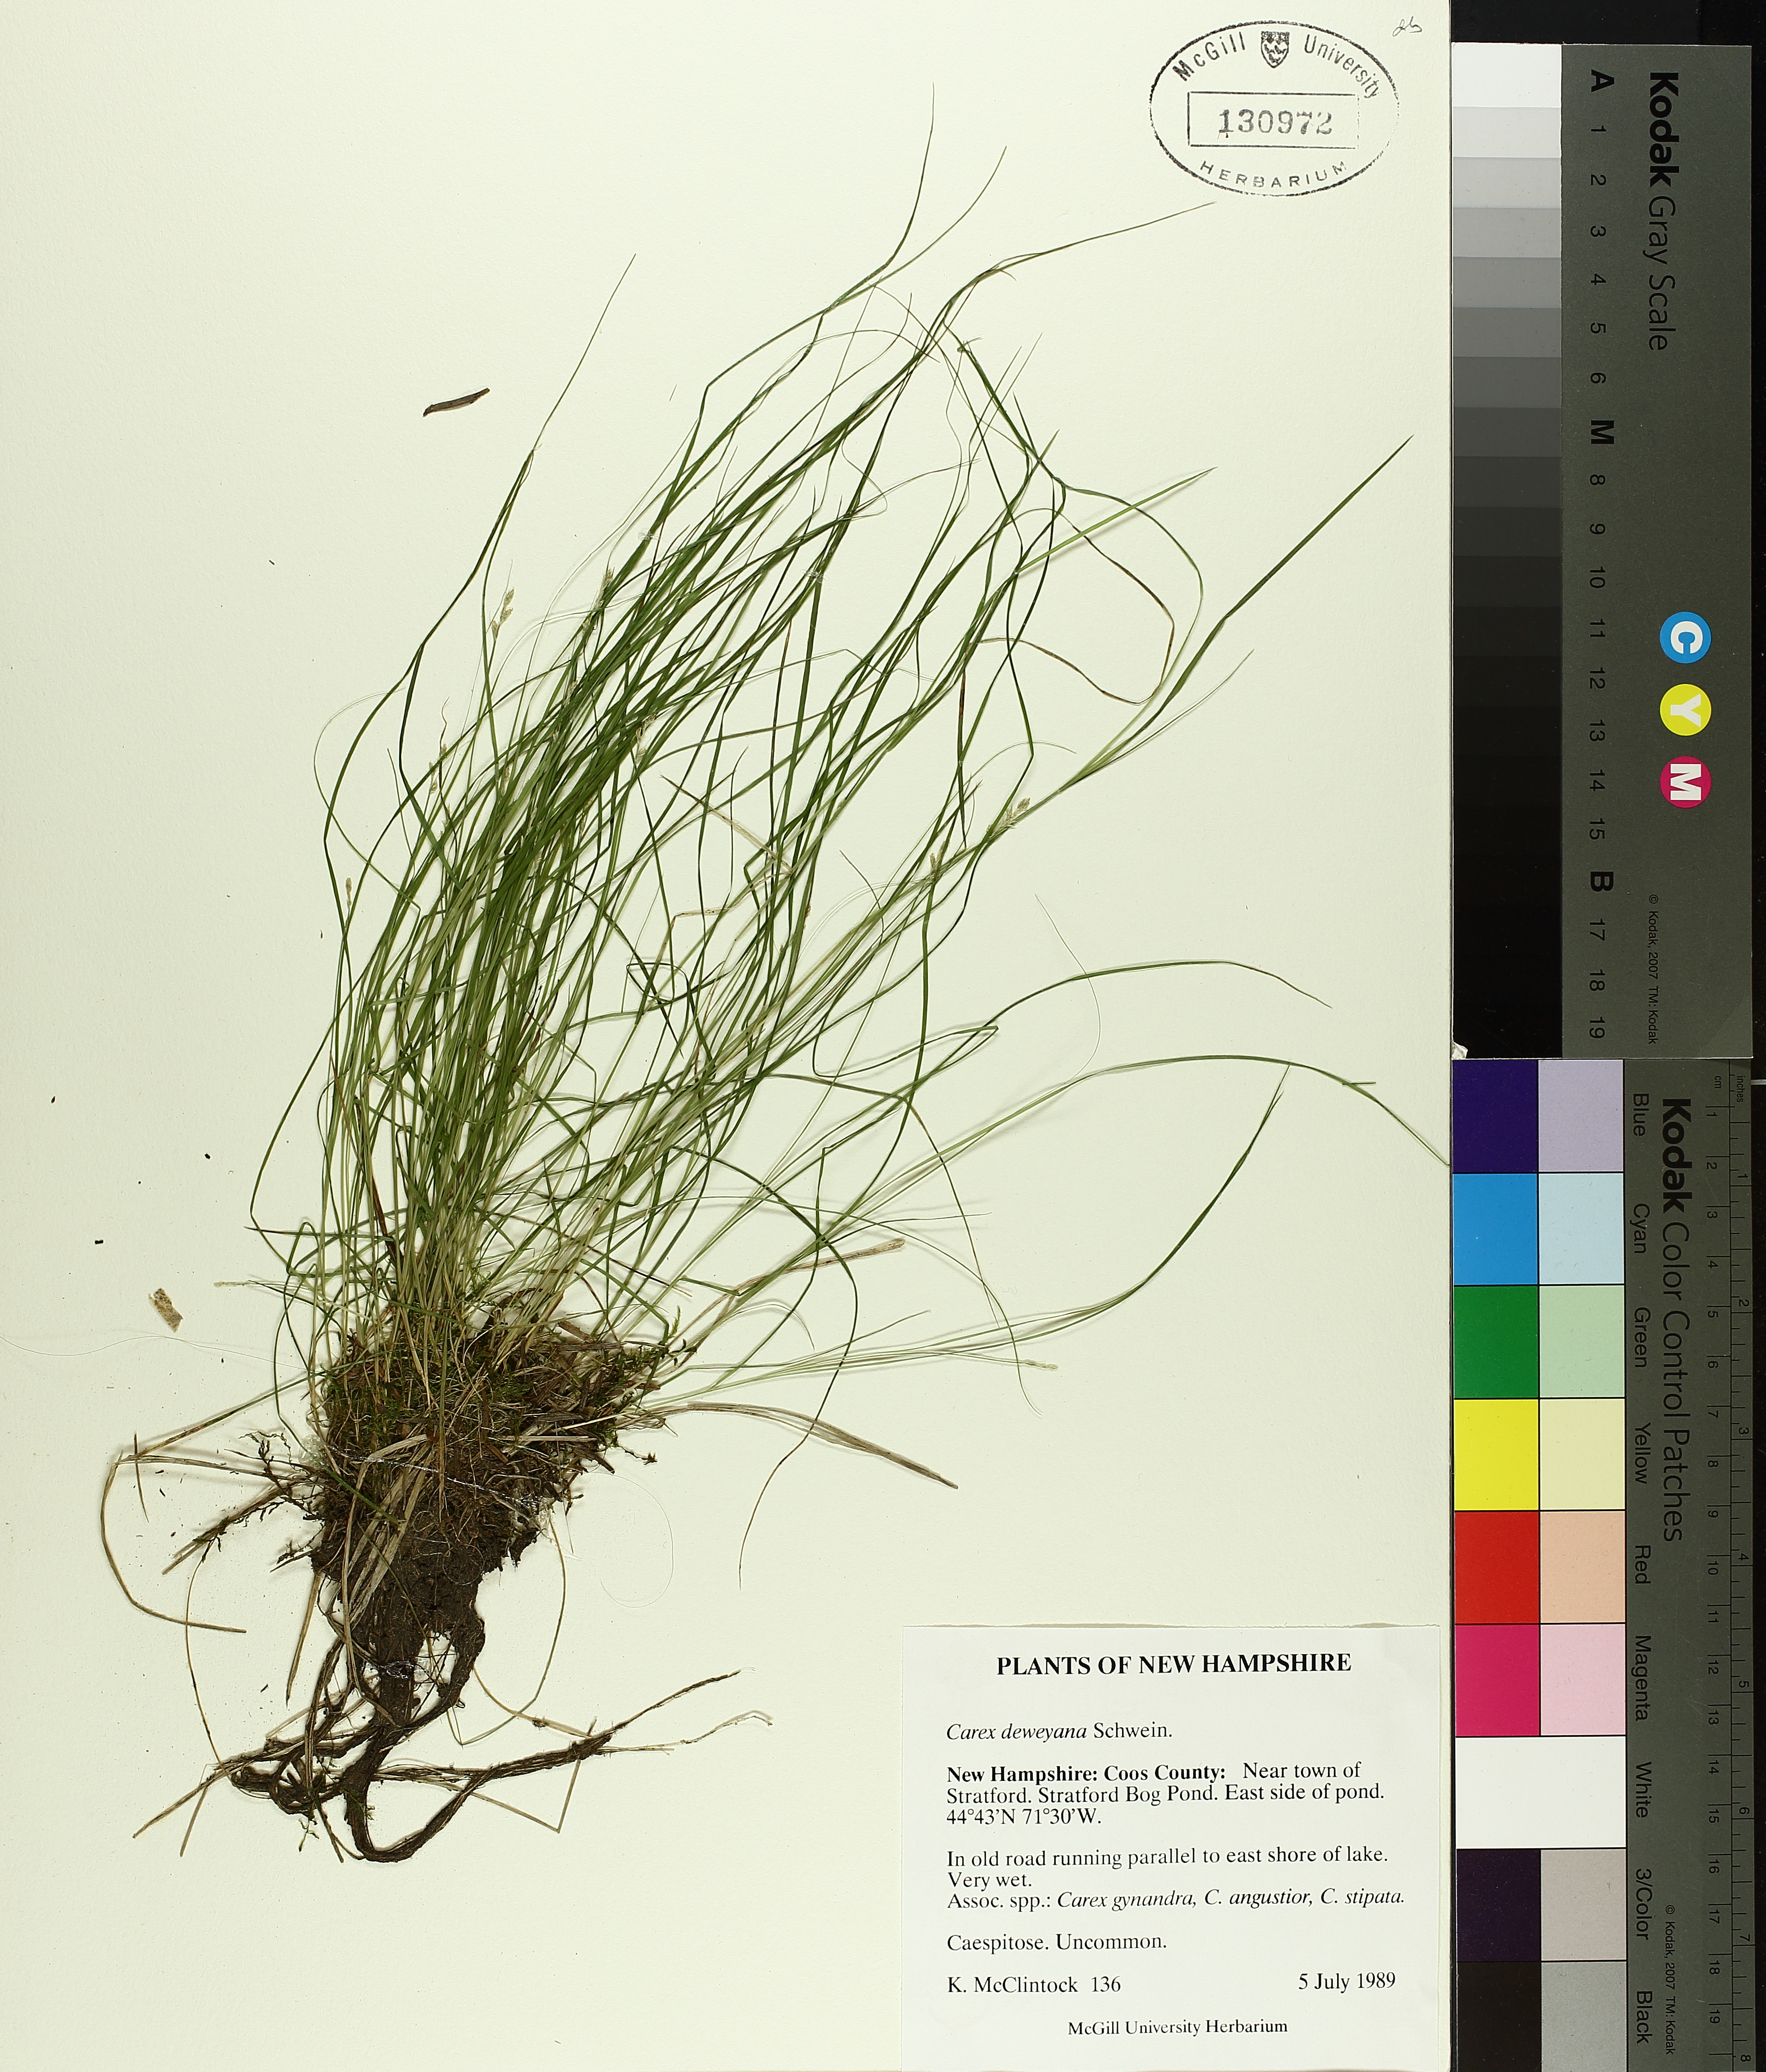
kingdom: Plantae
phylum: Tracheophyta
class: Liliopsida
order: Poales
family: Cyperaceae
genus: Carex
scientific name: Carex deweyana
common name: Dewey's sedge
